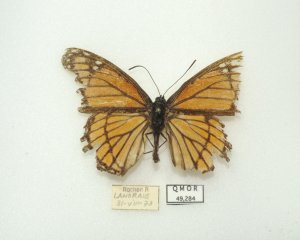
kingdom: Animalia
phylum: Arthropoda
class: Insecta
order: Lepidoptera
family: Nymphalidae
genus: Limenitis
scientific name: Limenitis archippus
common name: Viceroy
